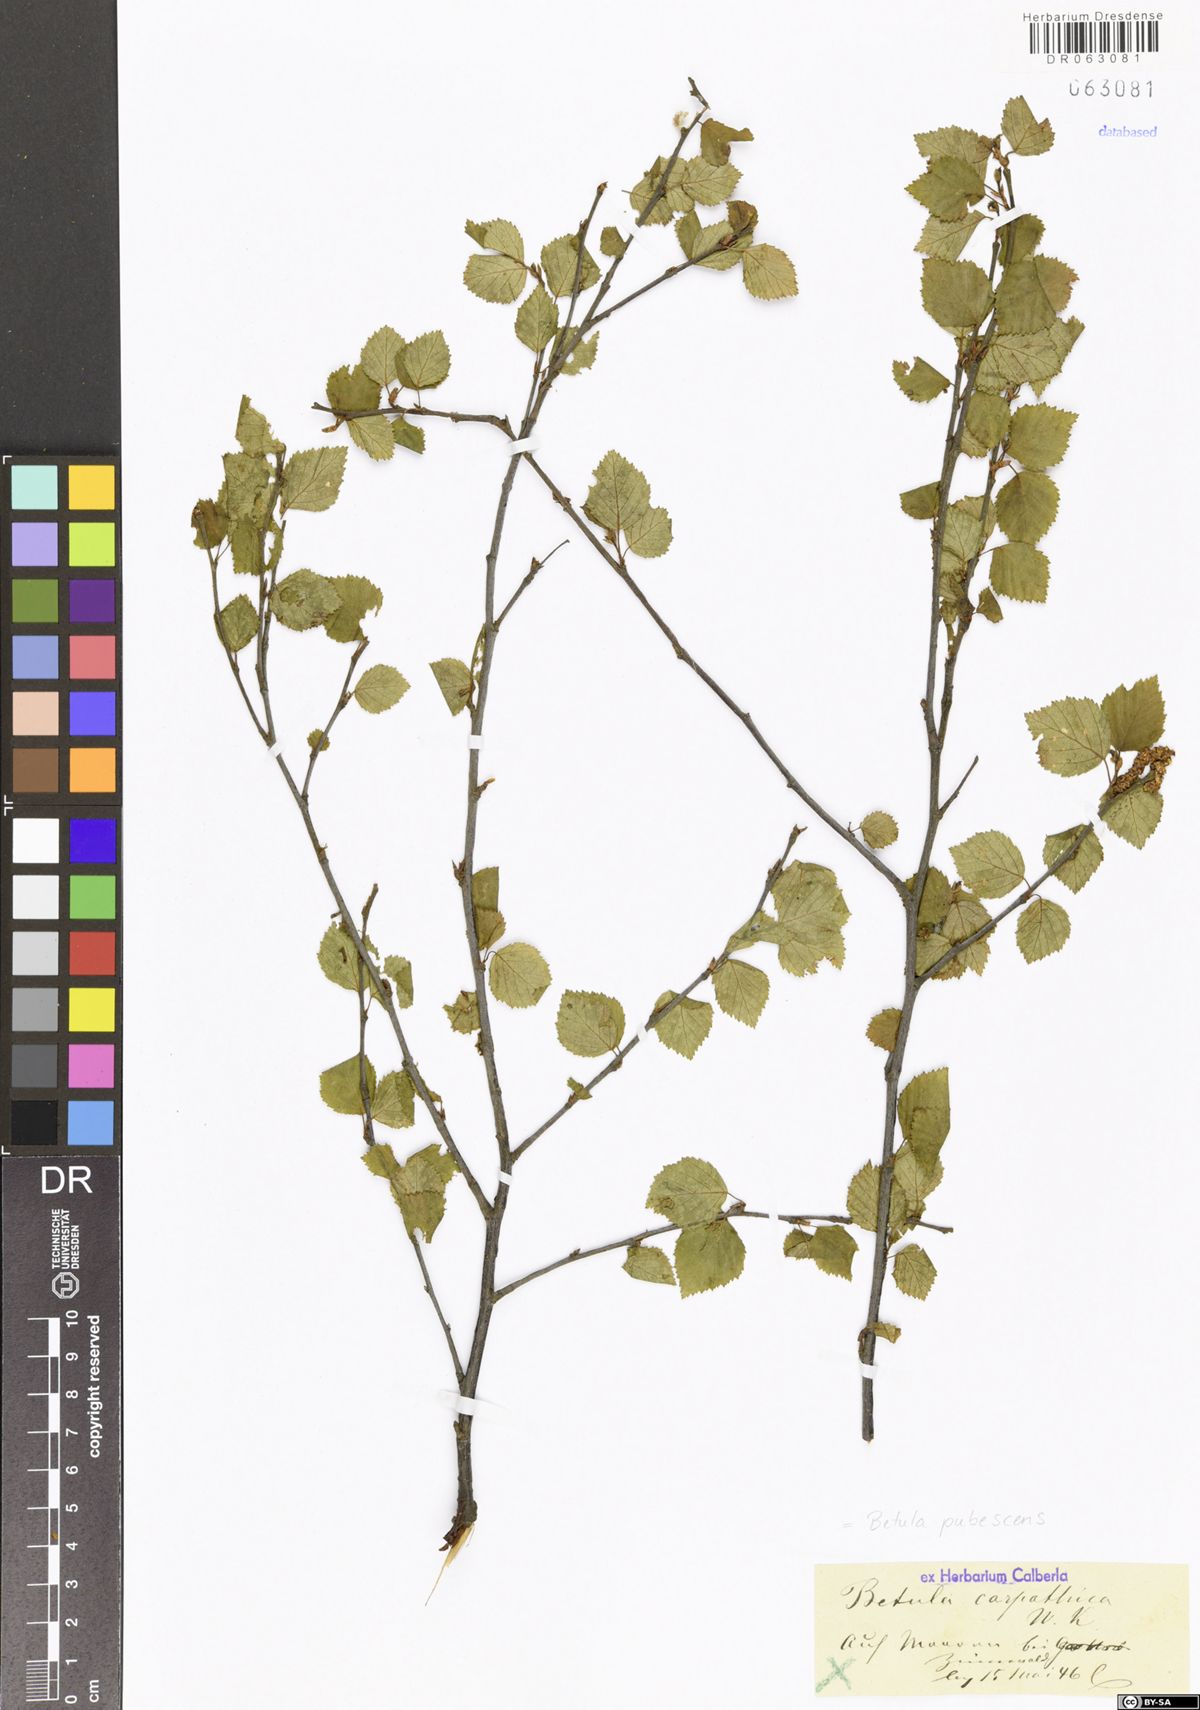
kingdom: Plantae
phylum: Tracheophyta
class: Magnoliopsida
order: Fagales
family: Betulaceae
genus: Betula
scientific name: Betula pubescens
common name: Downy birch
